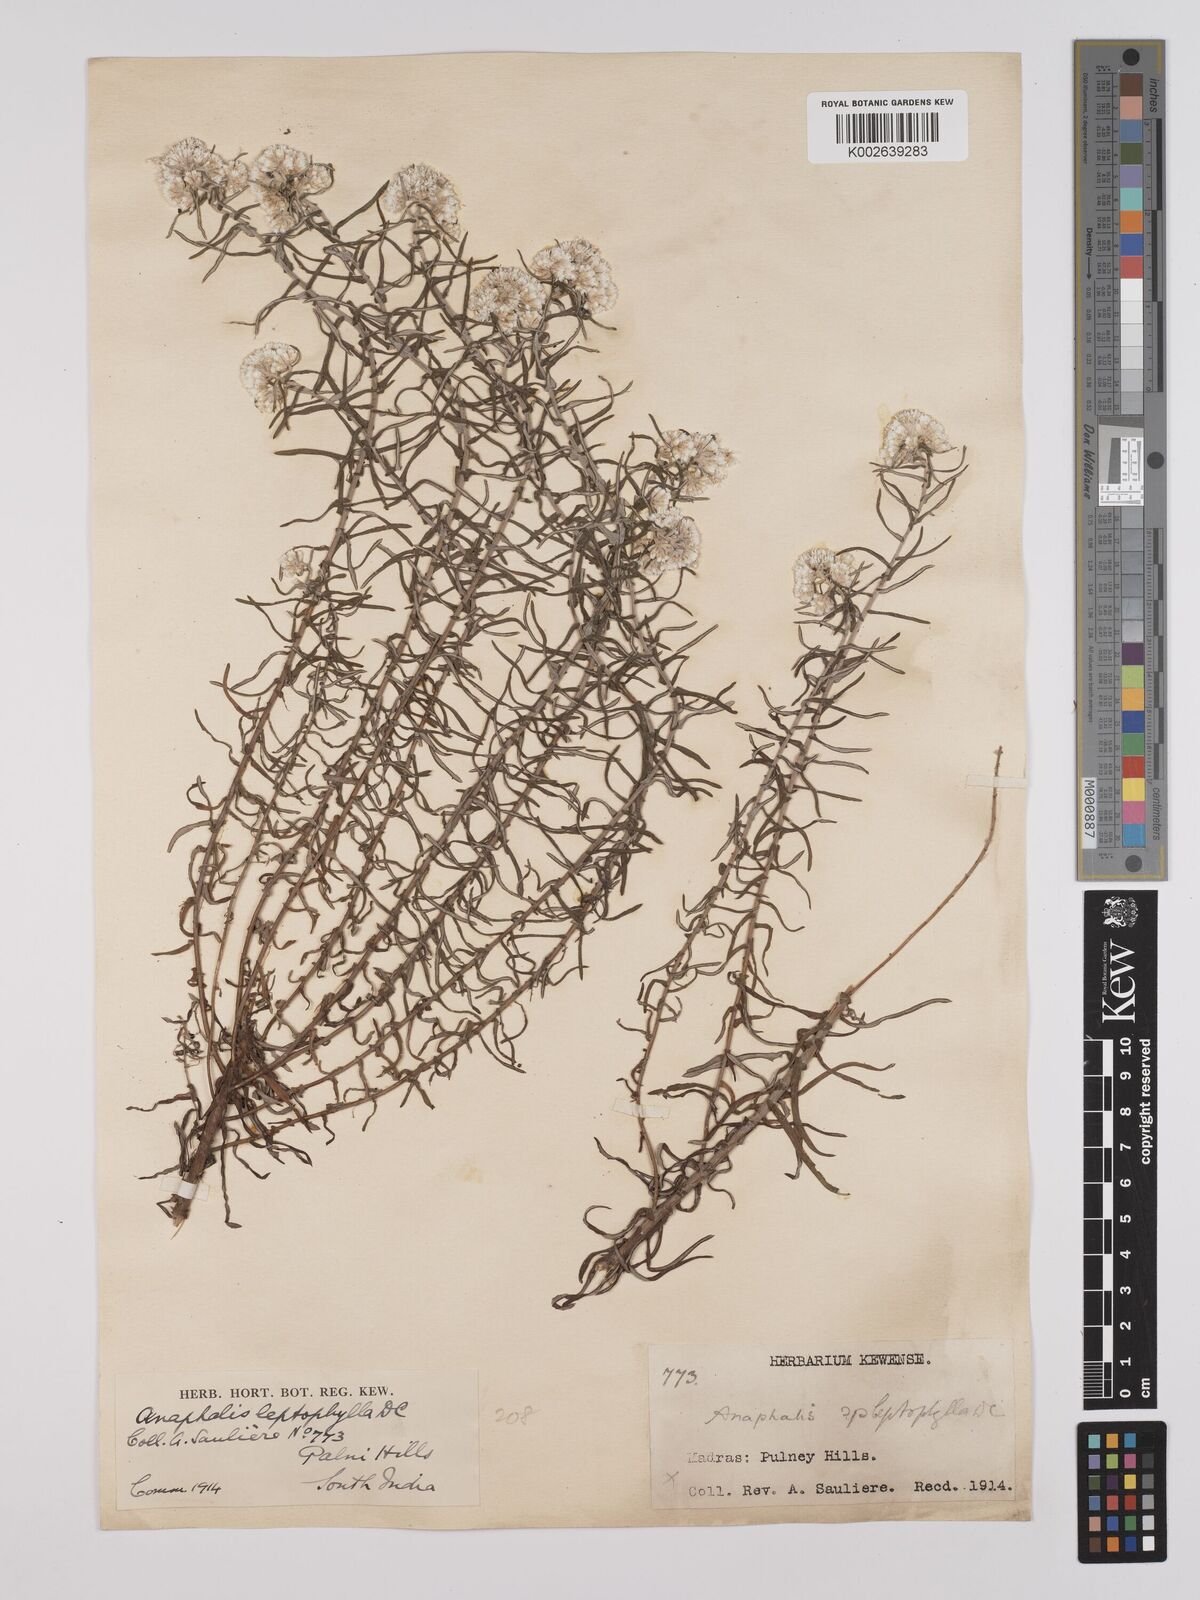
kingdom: Plantae
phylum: Tracheophyta
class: Magnoliopsida
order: Asterales
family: Asteraceae
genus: Anaphalis
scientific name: Anaphalis
